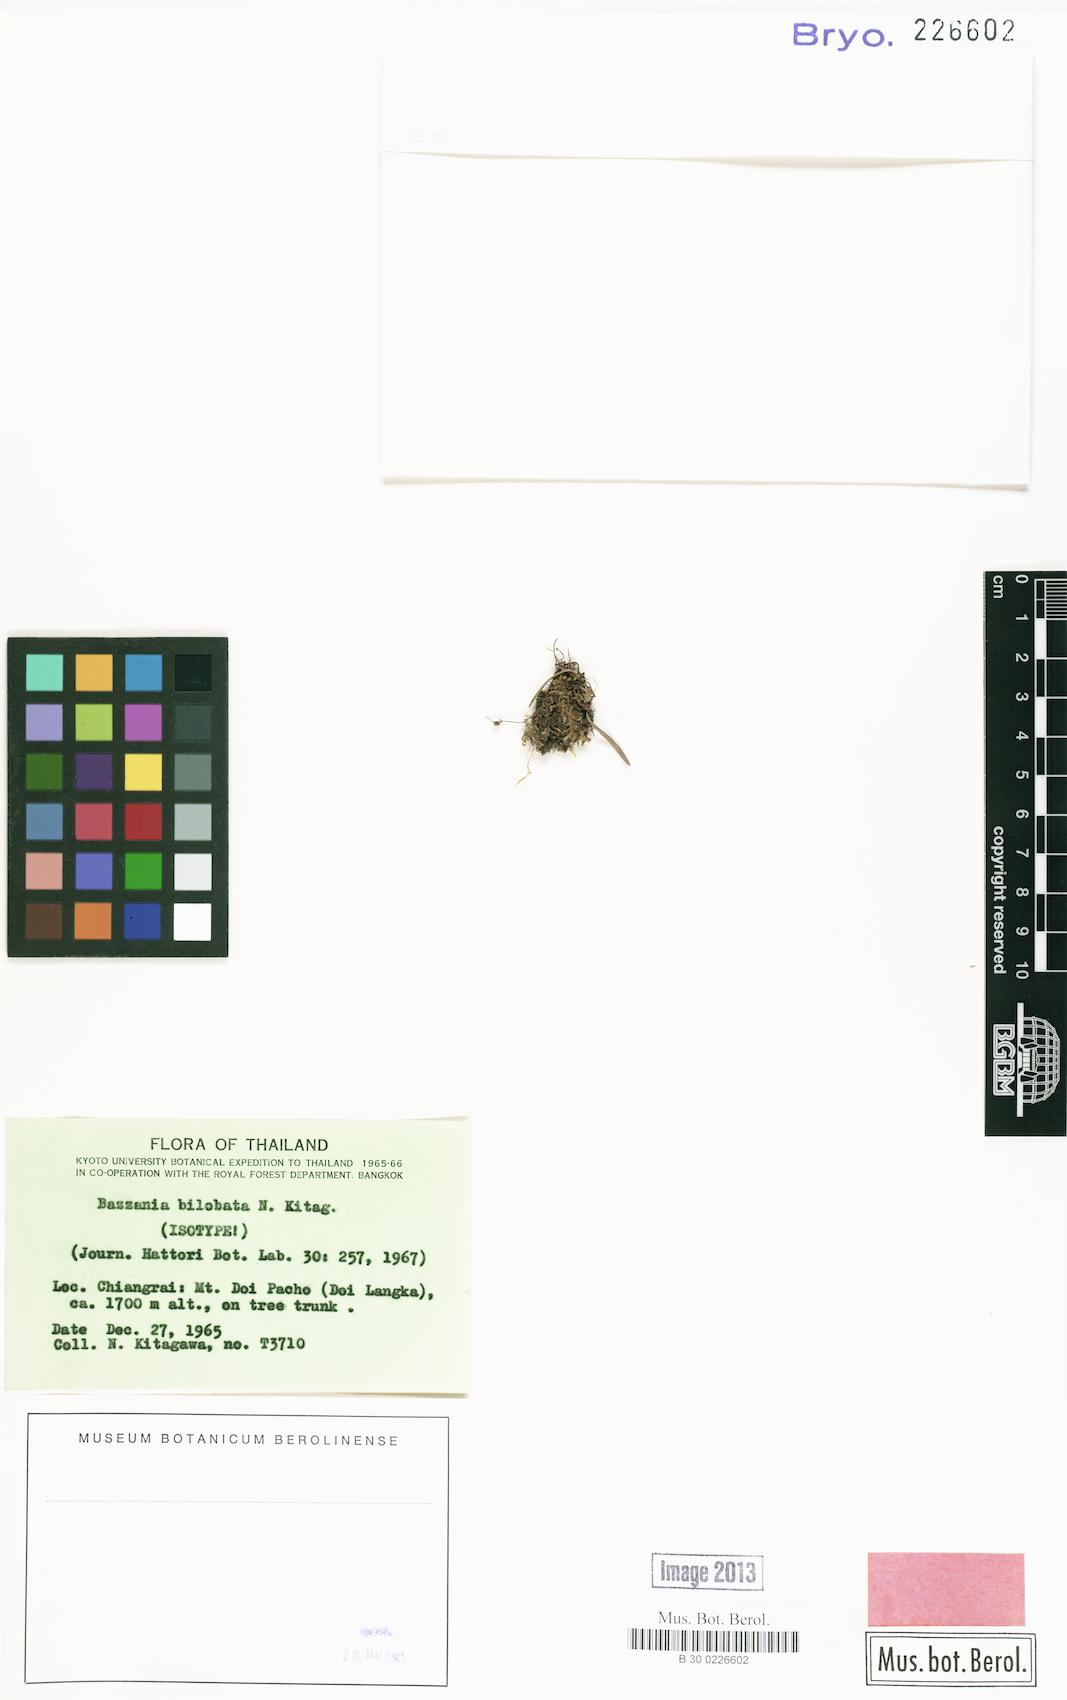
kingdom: Plantae
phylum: Marchantiophyta
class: Jungermanniopsida
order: Jungermanniales
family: Lepidoziaceae
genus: Bazzania
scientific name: Bazzania bilobata
